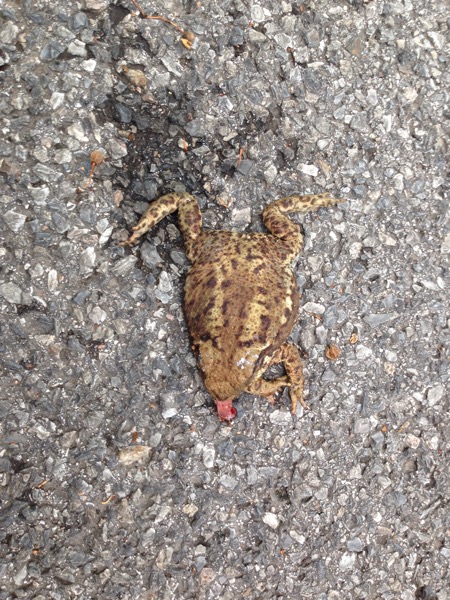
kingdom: Animalia
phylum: Chordata
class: Amphibia
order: Anura
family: Bufonidae
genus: Bufo
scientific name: Bufo bufo
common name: Common toad
